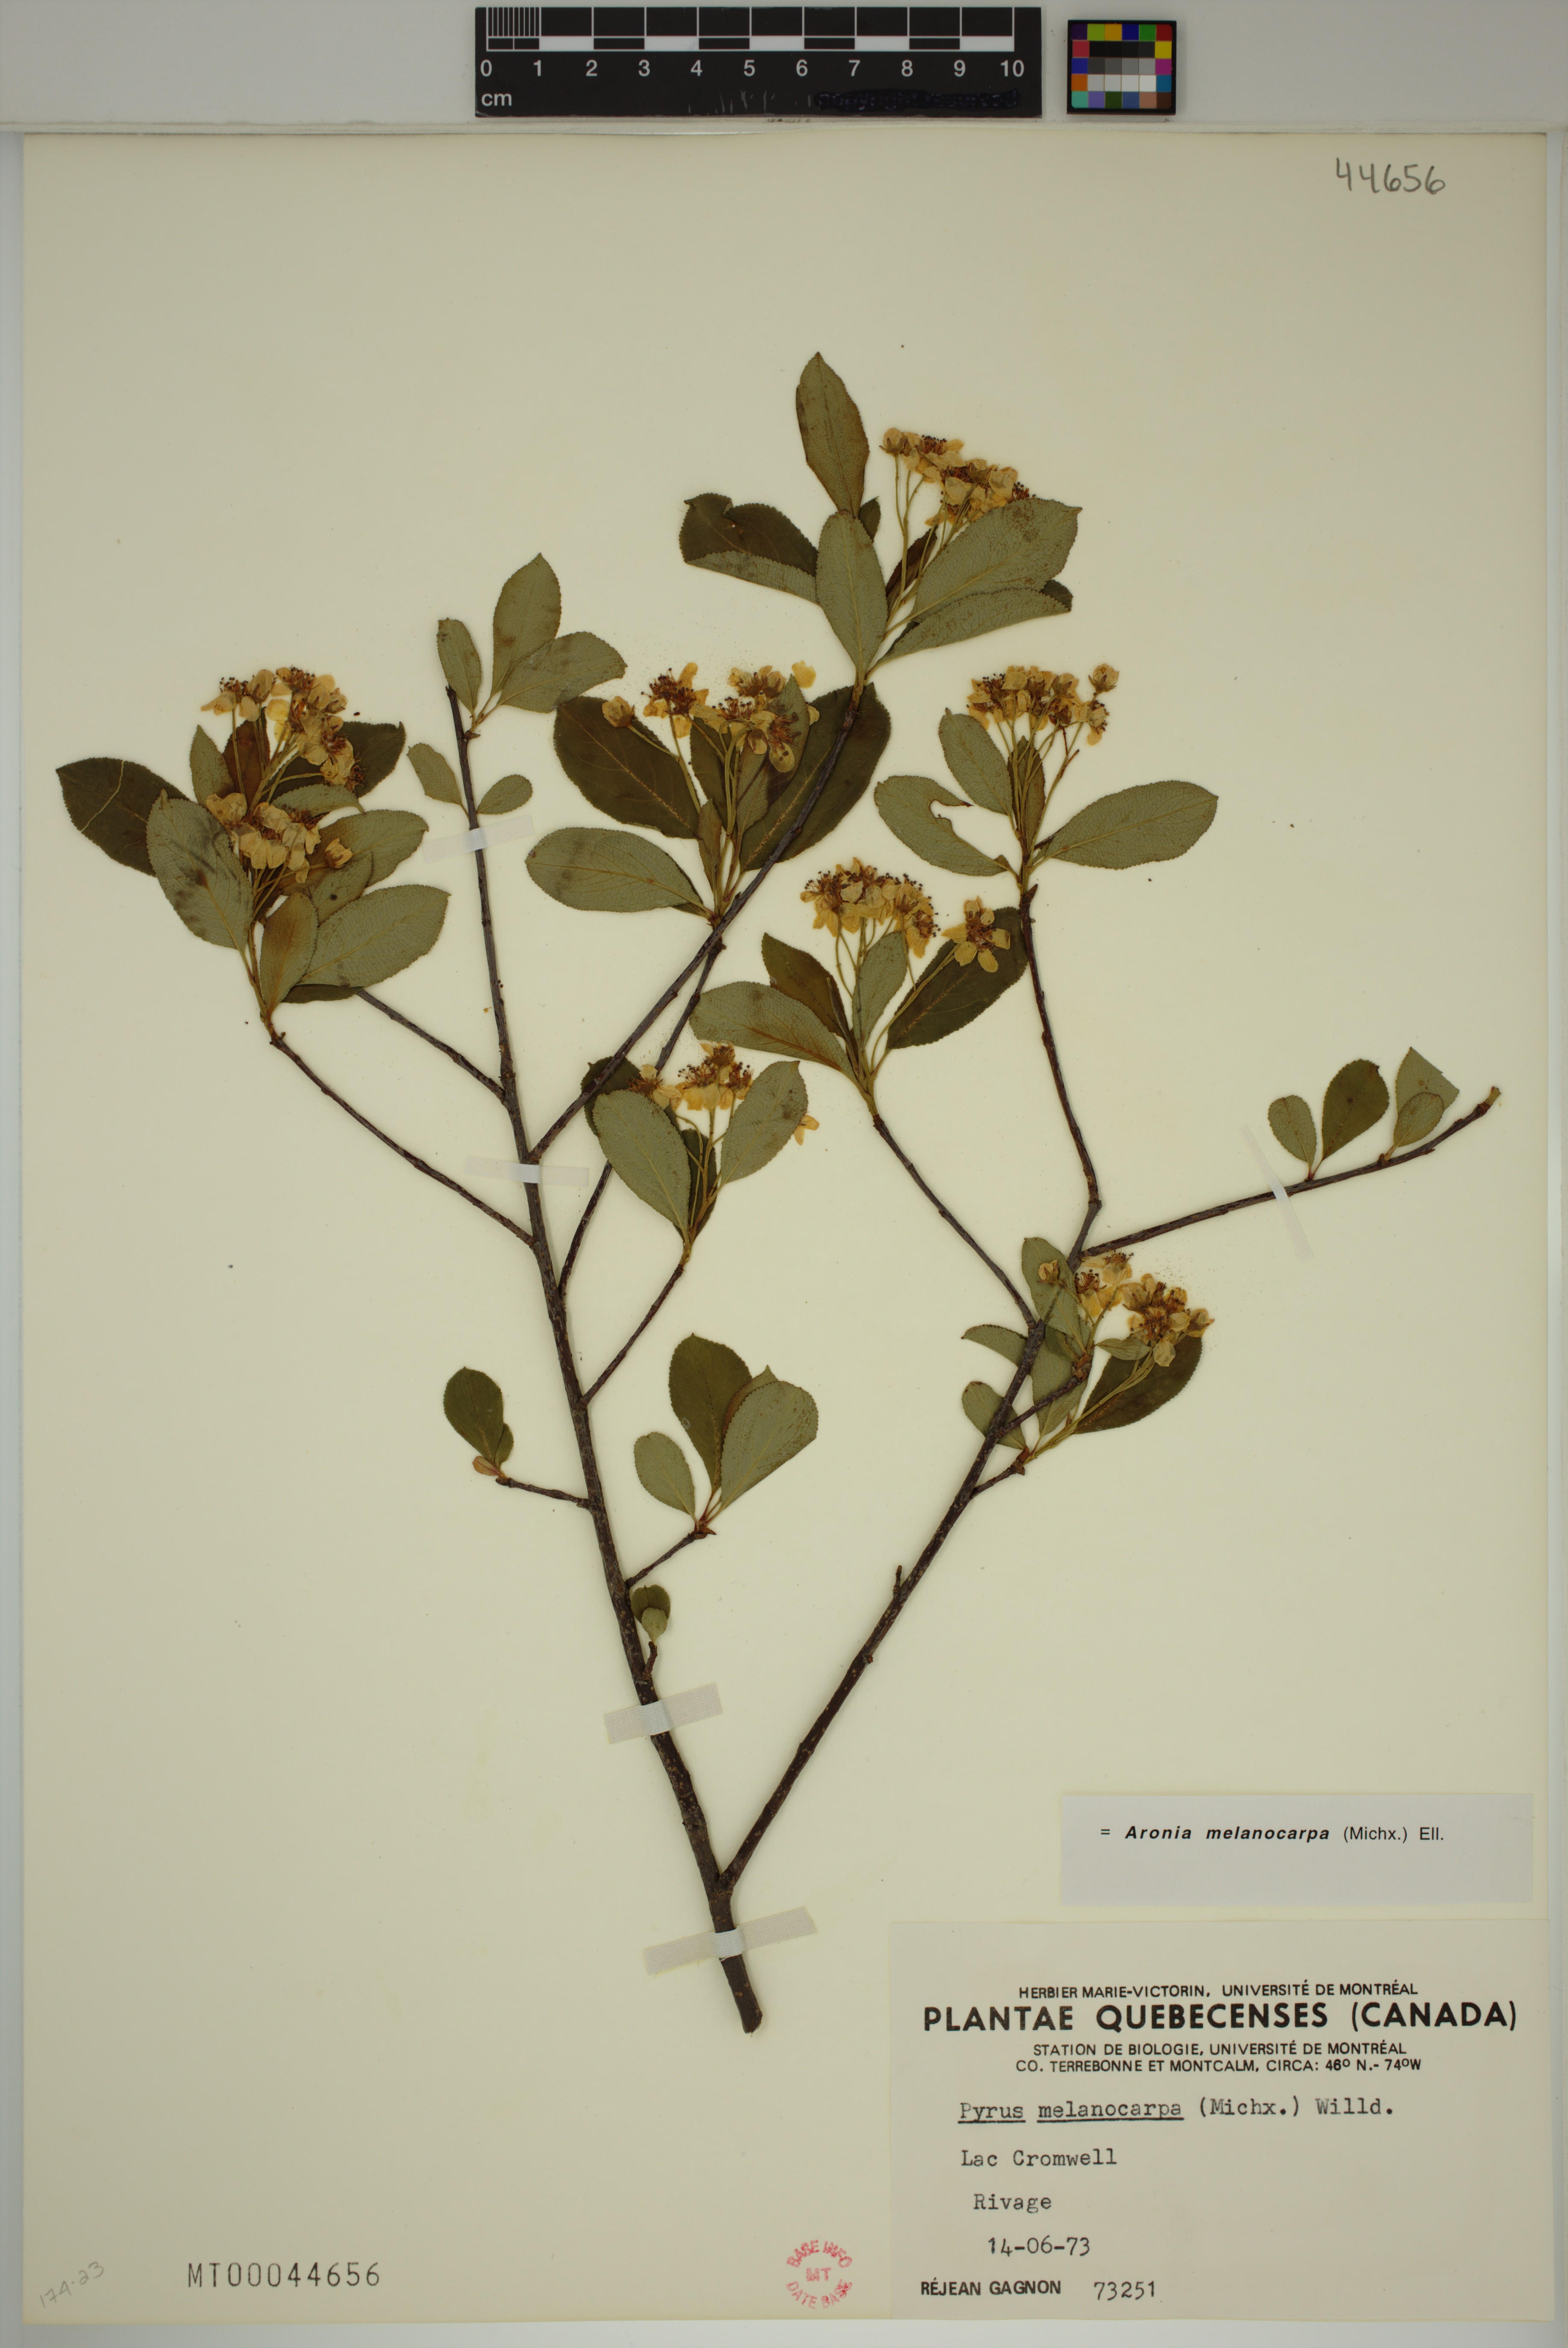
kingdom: Plantae
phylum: Tracheophyta
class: Magnoliopsida
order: Rosales
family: Rosaceae
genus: Aronia
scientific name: Aronia melanocarpa
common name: Black chokeberry
